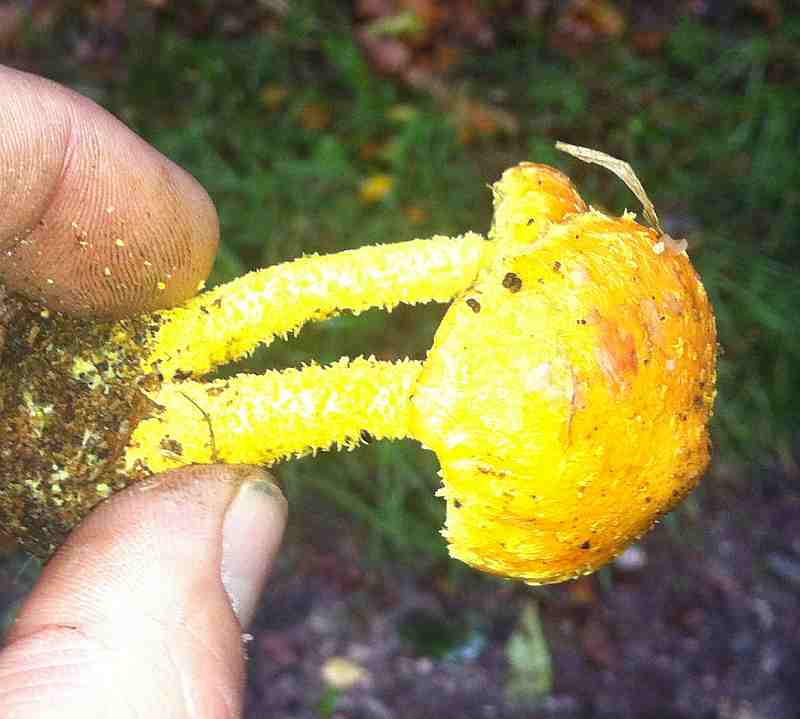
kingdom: Fungi
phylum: Basidiomycota
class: Agaricomycetes
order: Agaricales
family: Strophariaceae
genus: Pholiota
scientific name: Pholiota flammans
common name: flamme-skælhat
